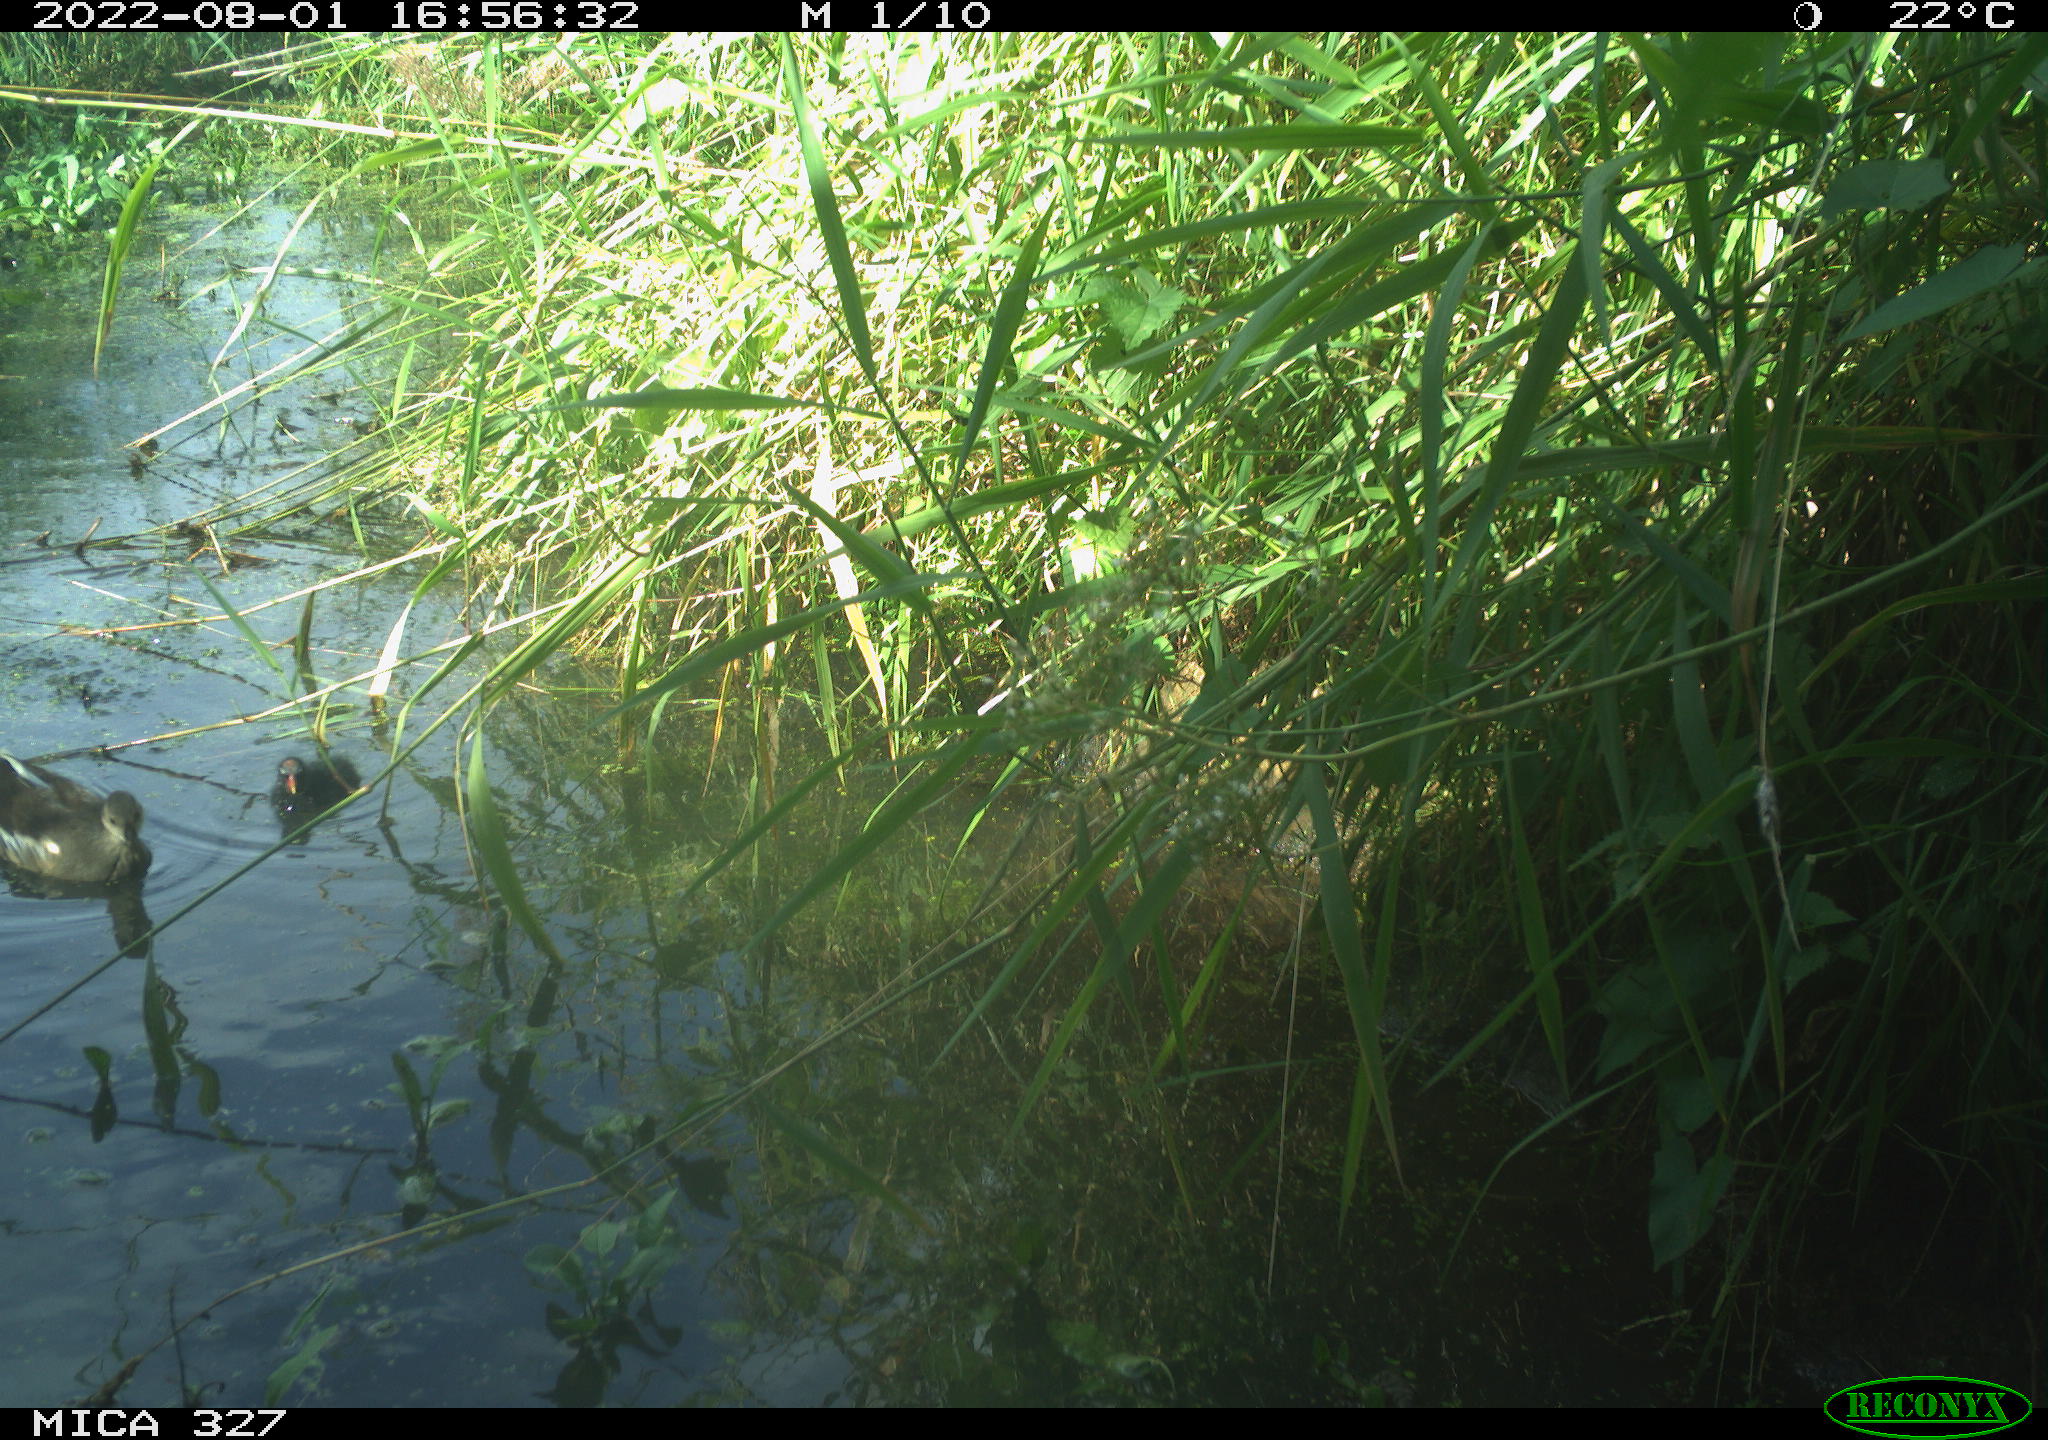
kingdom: Animalia
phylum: Chordata
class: Aves
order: Gruiformes
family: Rallidae
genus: Gallinula
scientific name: Gallinula chloropus
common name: Common moorhen
